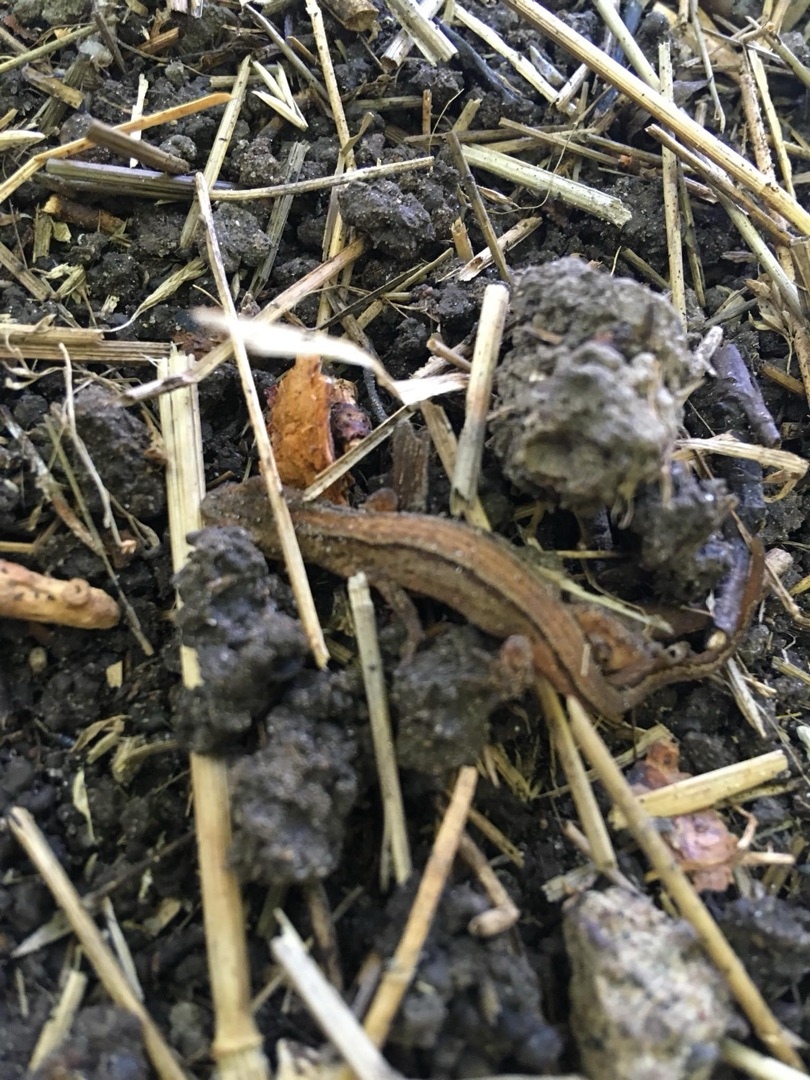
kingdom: Animalia
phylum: Chordata
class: Amphibia
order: Caudata
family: Salamandridae
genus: Lissotriton
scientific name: Lissotriton vulgaris
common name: Lille vandsalamander
